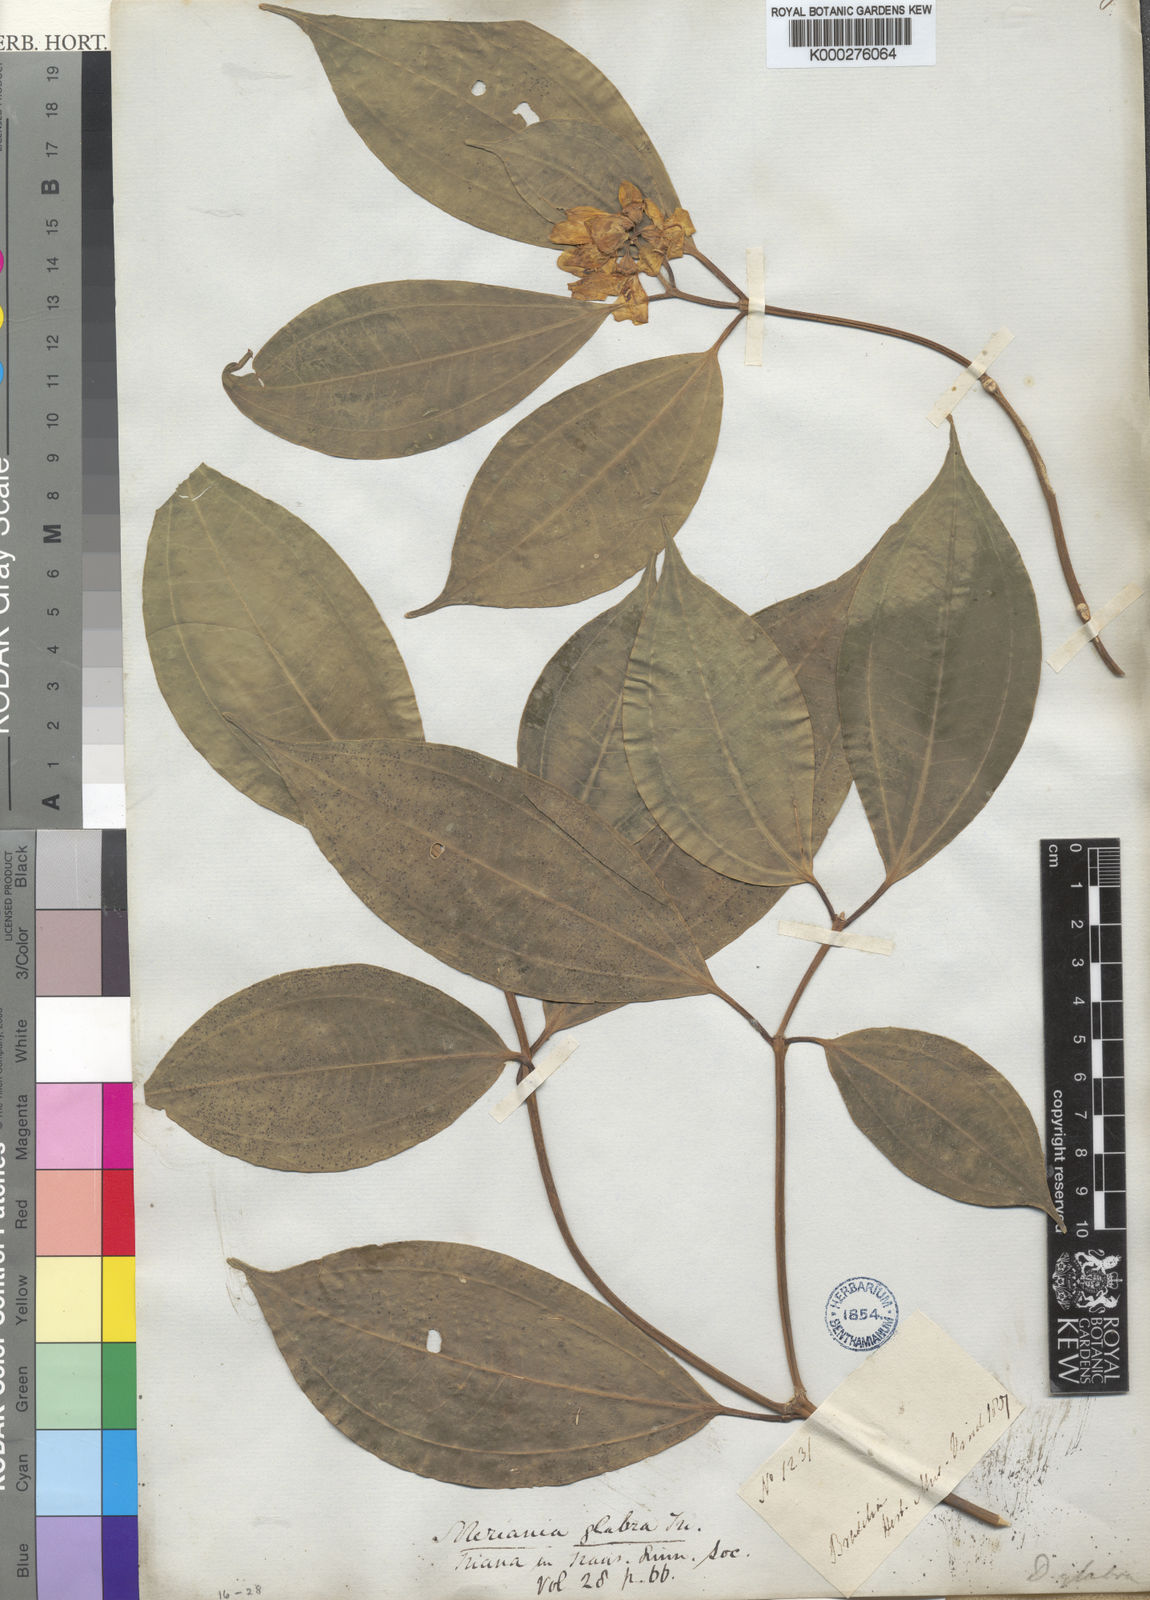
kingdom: Plantae
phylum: Tracheophyta
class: Magnoliopsida
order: Myrtales
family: Melastomataceae
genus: Meriania
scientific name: Meriania glabra
